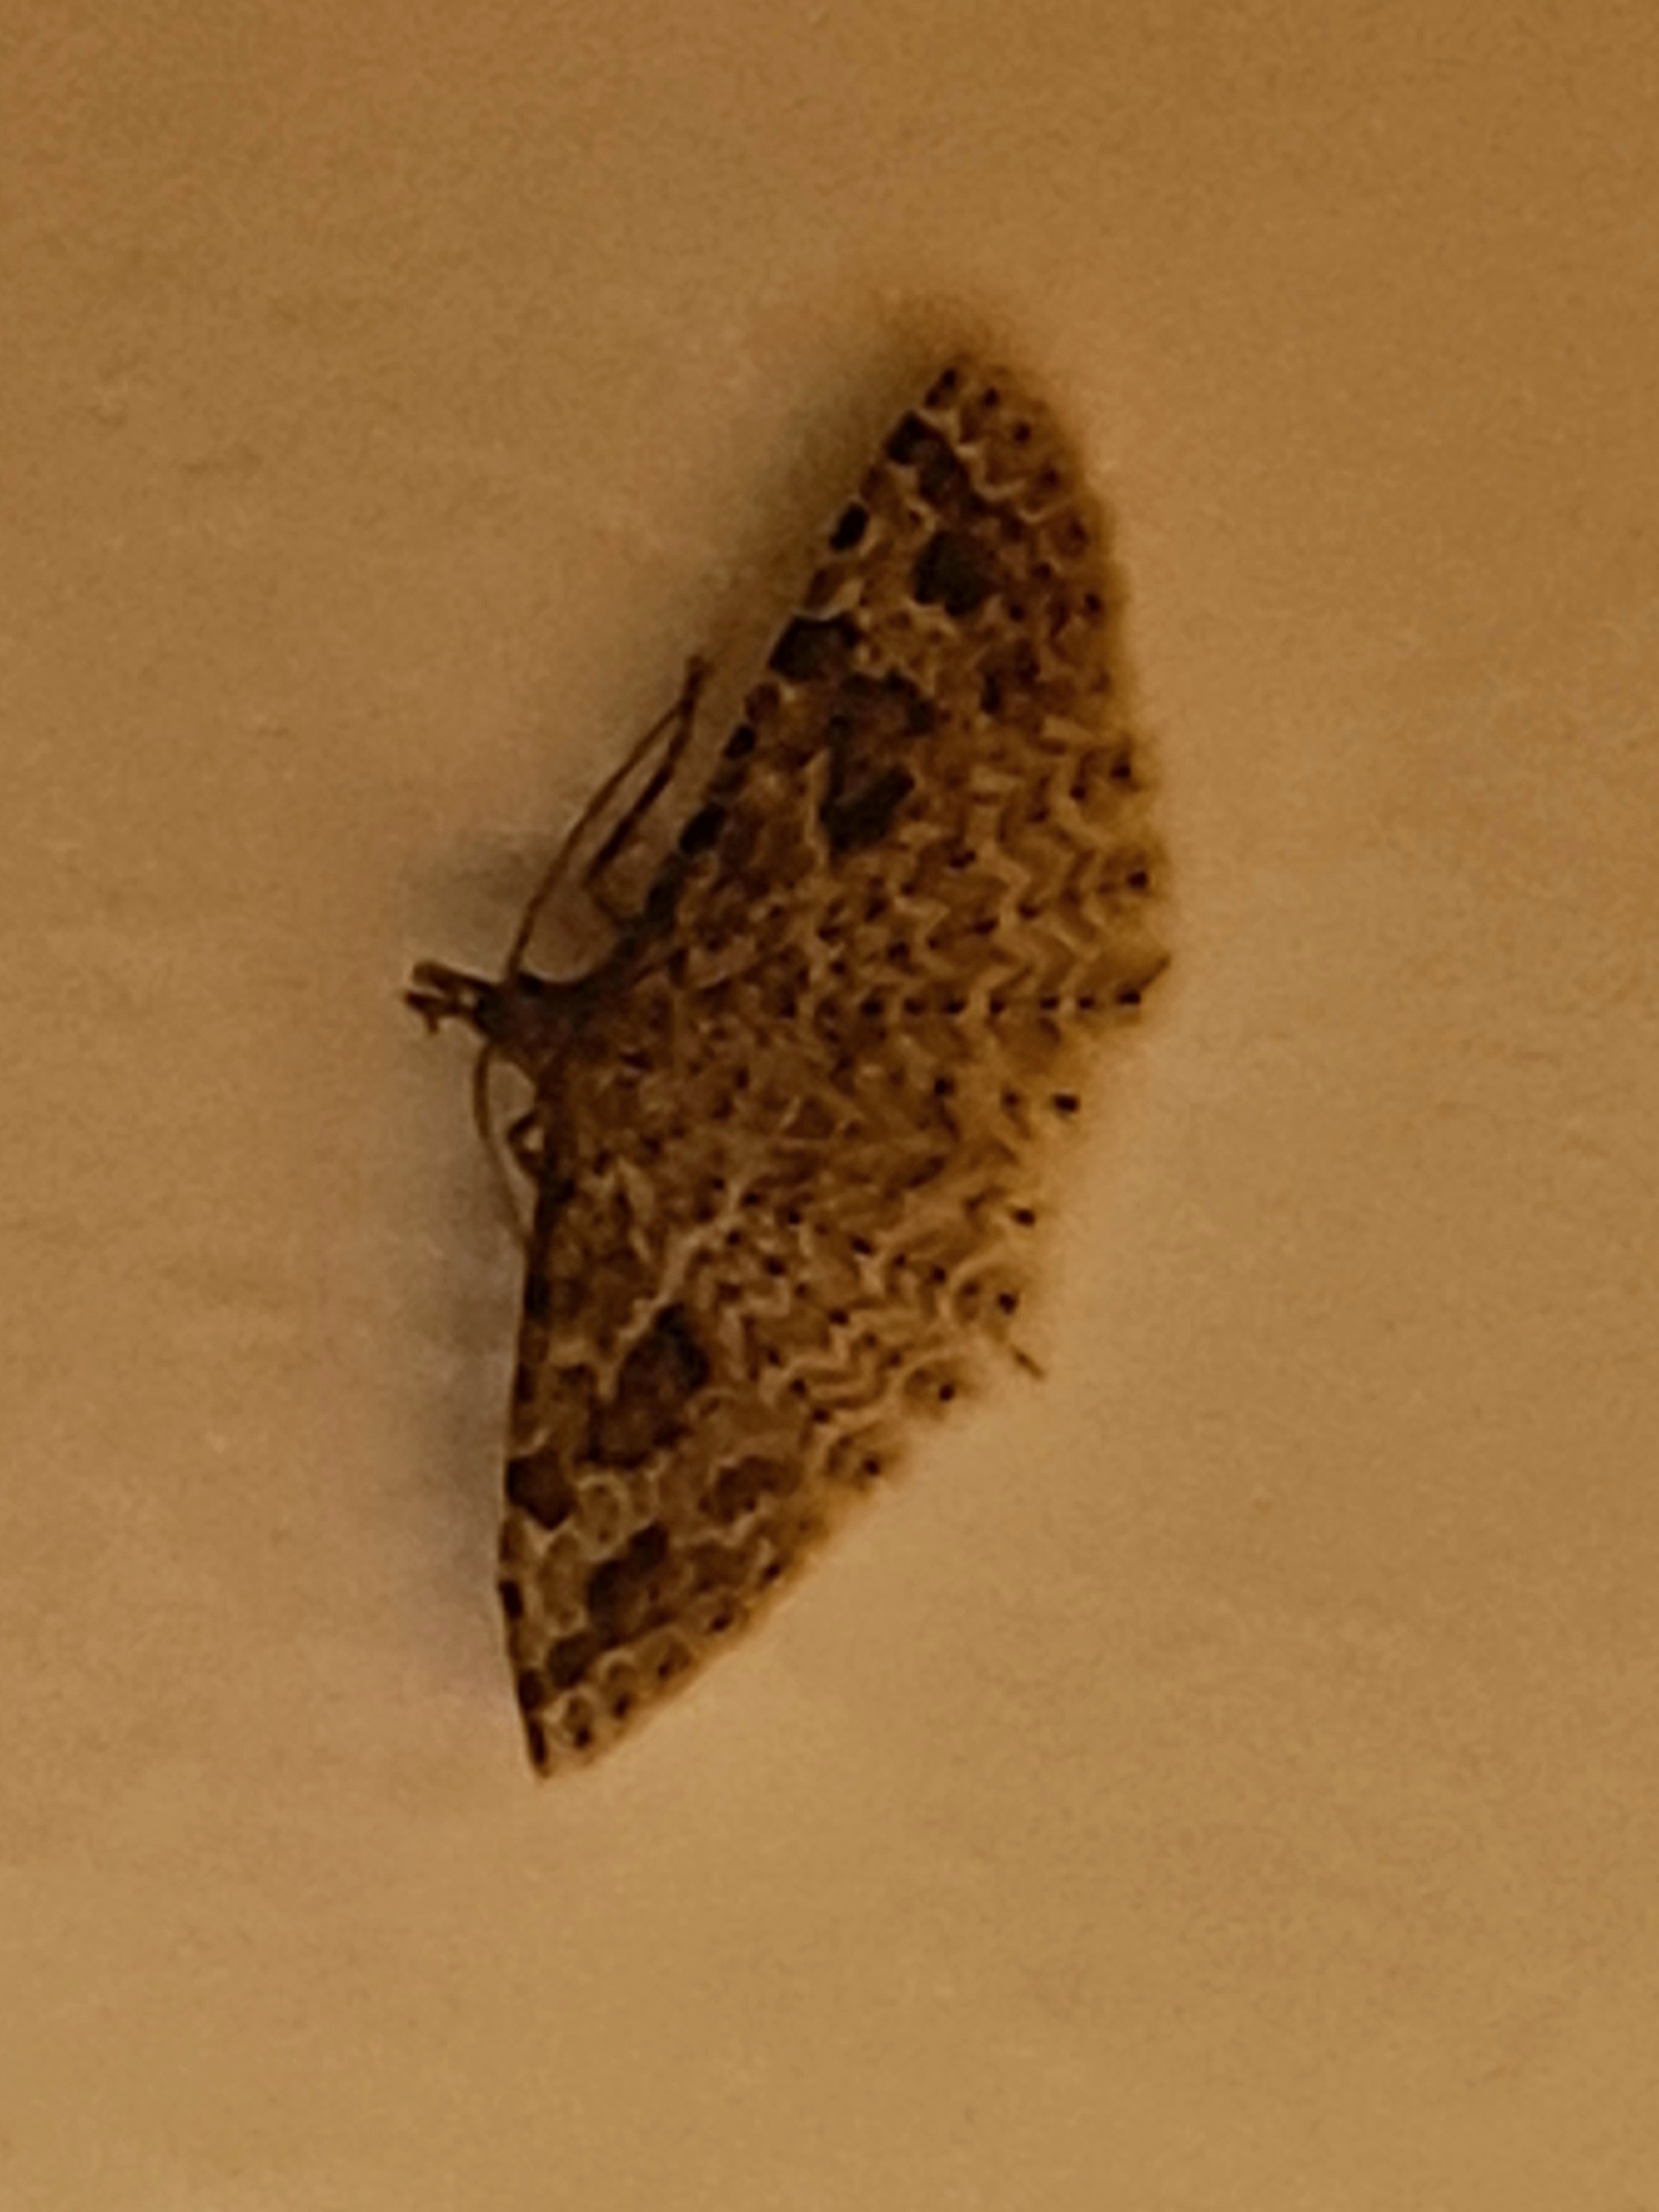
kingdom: Animalia
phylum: Arthropoda
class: Insecta
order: Lepidoptera
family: Alucitidae
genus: Alucita
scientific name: Alucita hexadactyla
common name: Kaprifoliefjermøl
